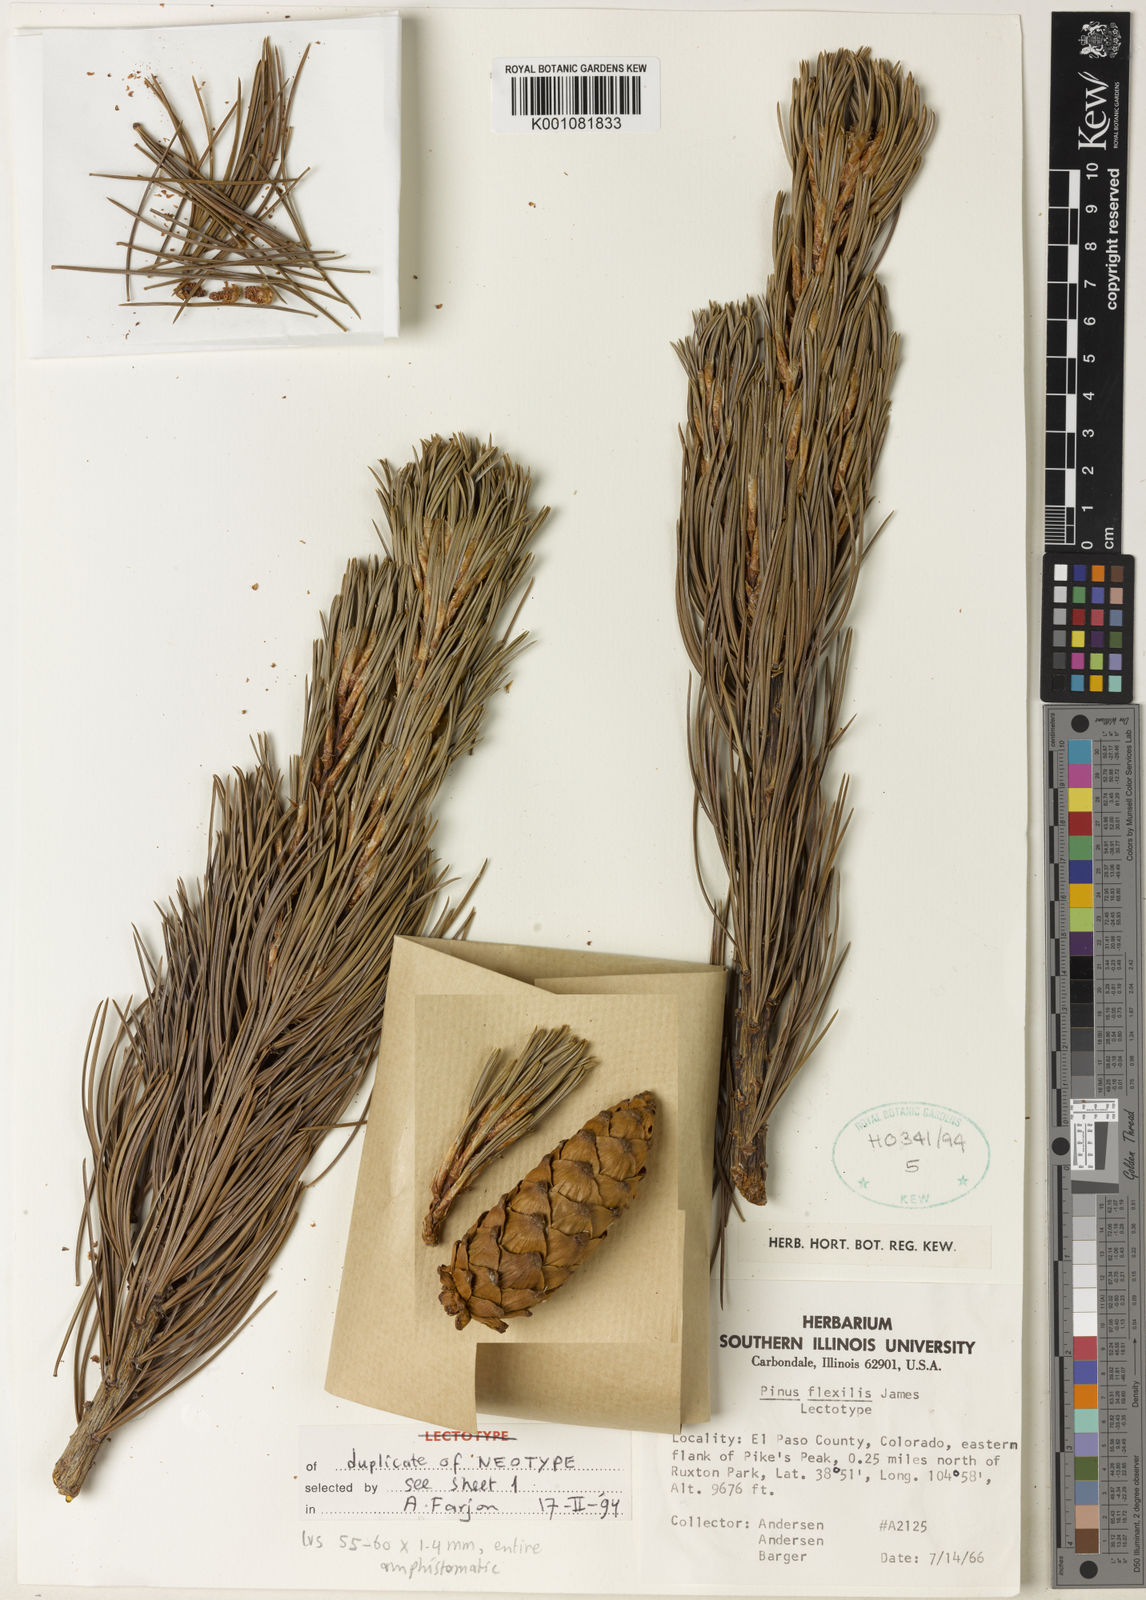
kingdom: Plantae
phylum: Tracheophyta
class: Pinopsida
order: Pinales
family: Pinaceae
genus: Pinus
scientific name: Pinus flexilis
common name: Limber pine
